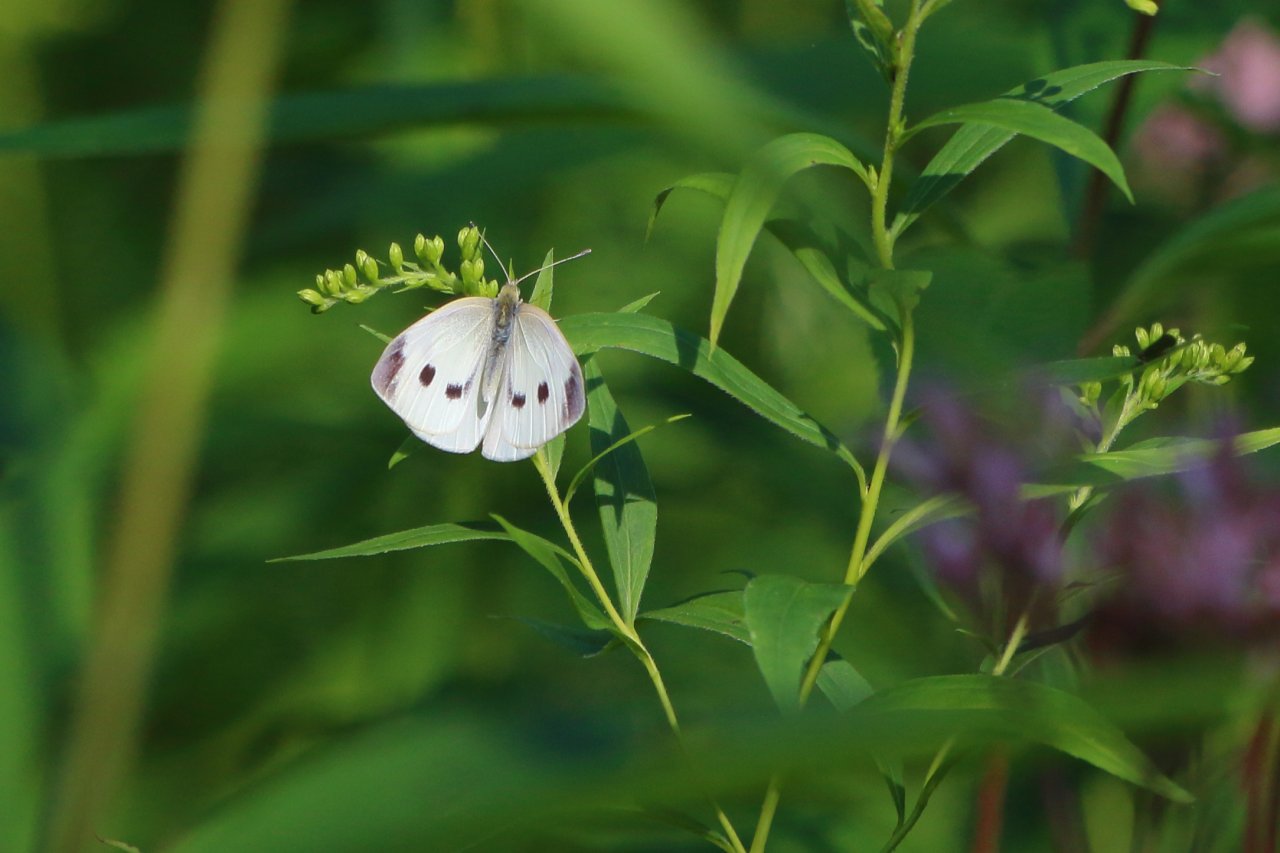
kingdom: Animalia
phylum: Arthropoda
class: Insecta
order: Lepidoptera
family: Pieridae
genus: Pieris
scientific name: Pieris rapae
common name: Cabbage White
